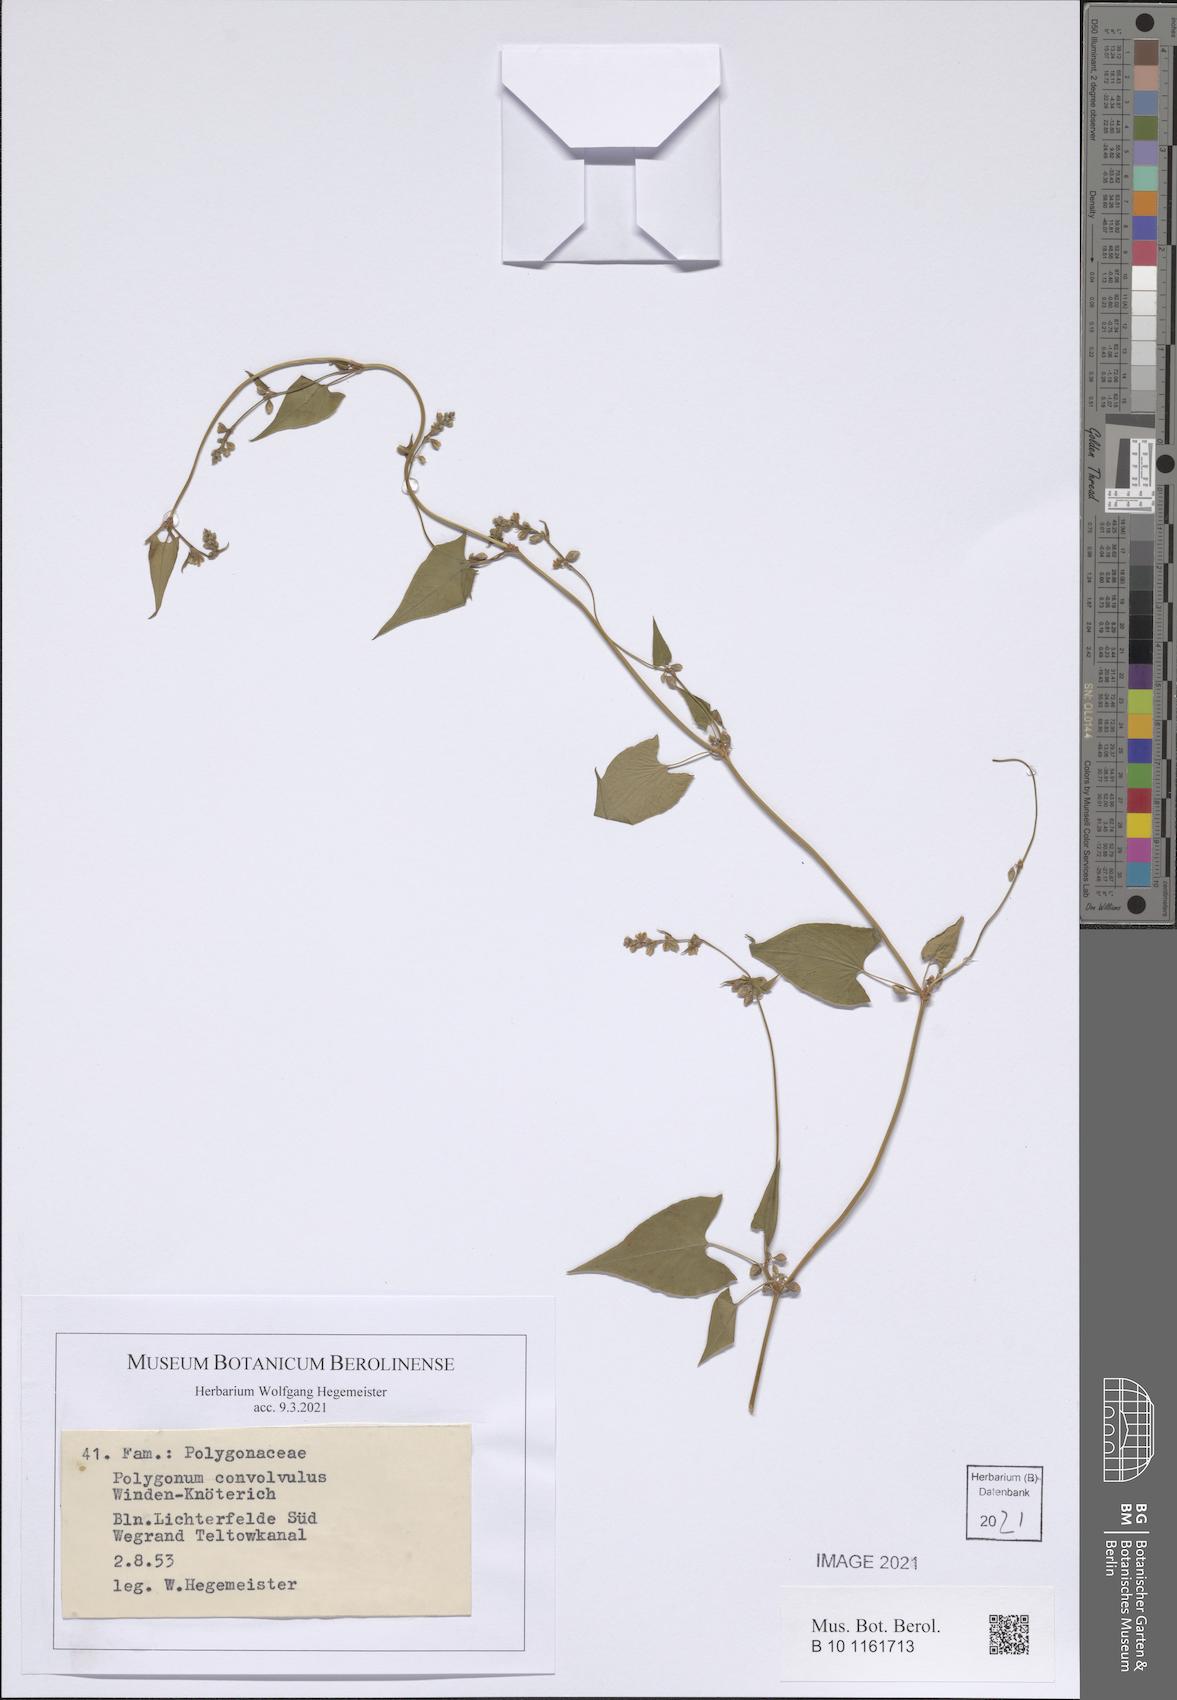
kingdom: Plantae
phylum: Tracheophyta
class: Magnoliopsida
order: Caryophyllales
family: Polygonaceae
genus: Fallopia
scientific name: Fallopia convolvulus
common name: Black bindweed
